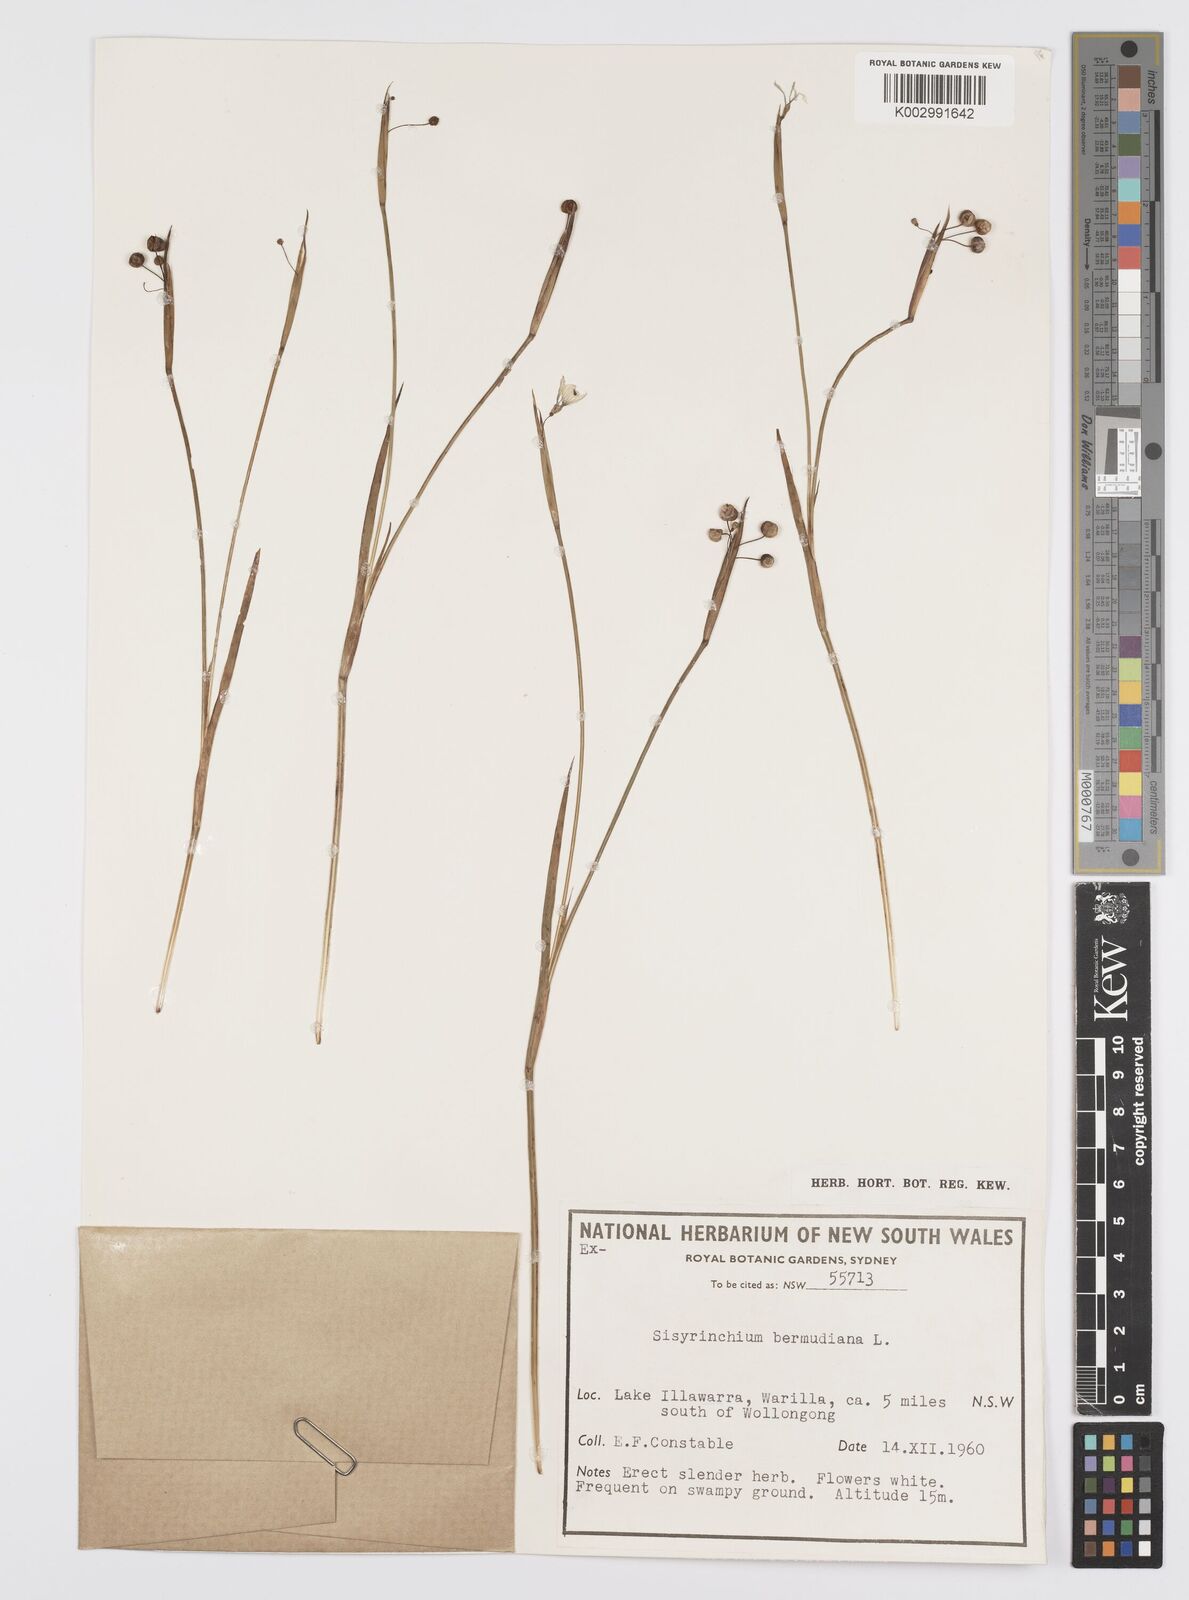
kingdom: Plantae
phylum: Tracheophyta
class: Liliopsida
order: Asparagales
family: Iridaceae
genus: Sisyrinchium
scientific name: Sisyrinchium bermudiana
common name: Blue-eyed-grass
